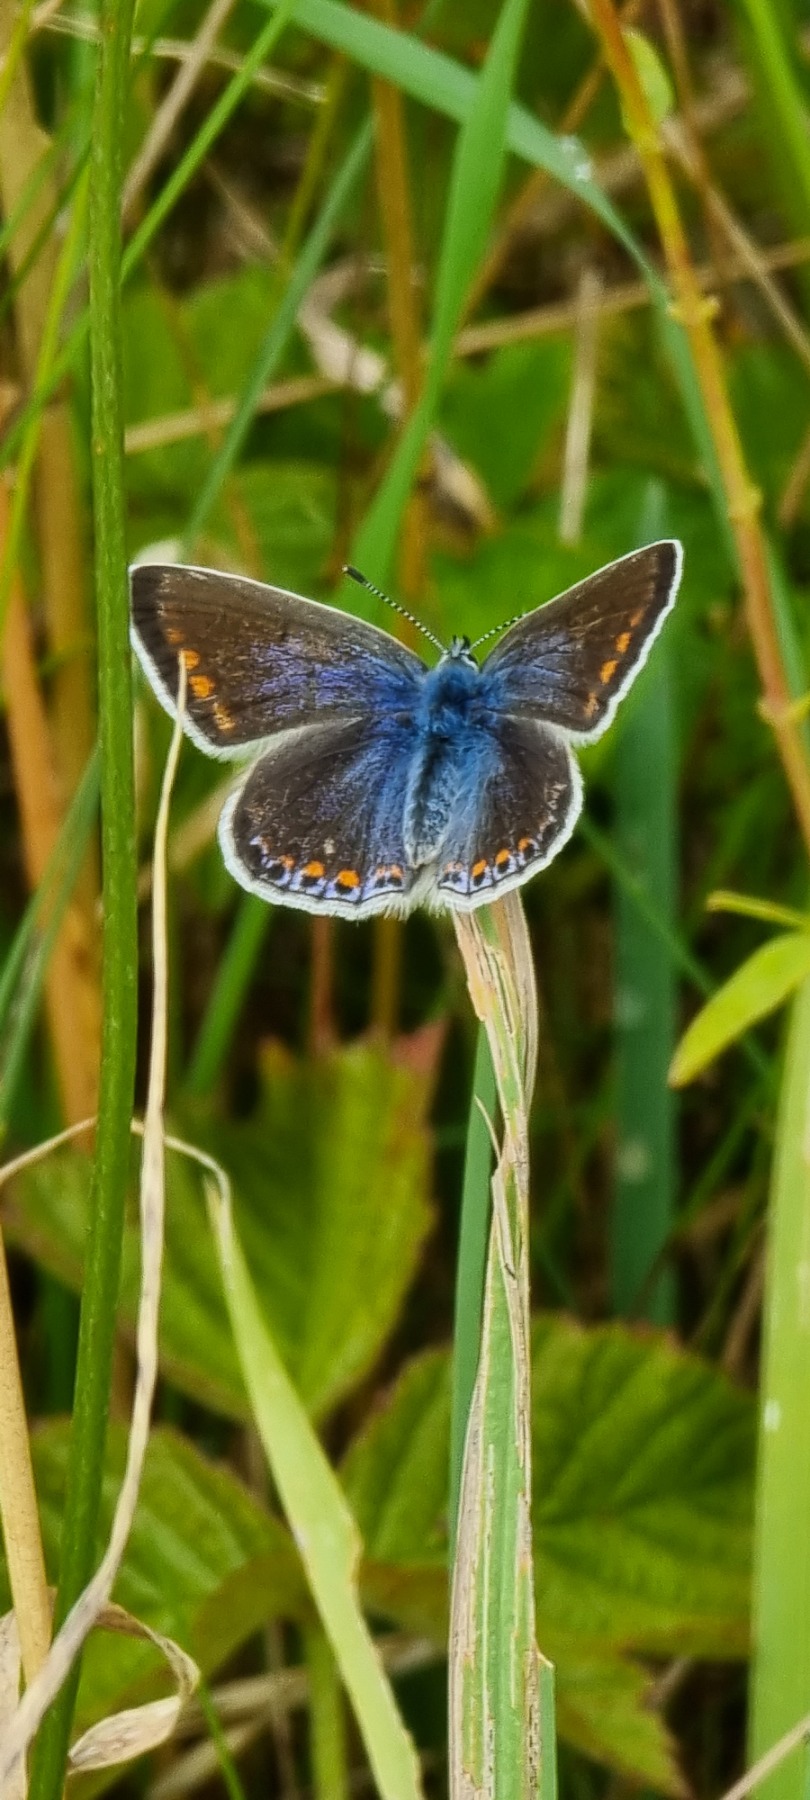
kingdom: Animalia
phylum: Arthropoda
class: Insecta
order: Lepidoptera
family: Lycaenidae
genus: Polyommatus
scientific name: Polyommatus icarus
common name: Almindelig blåfugl
